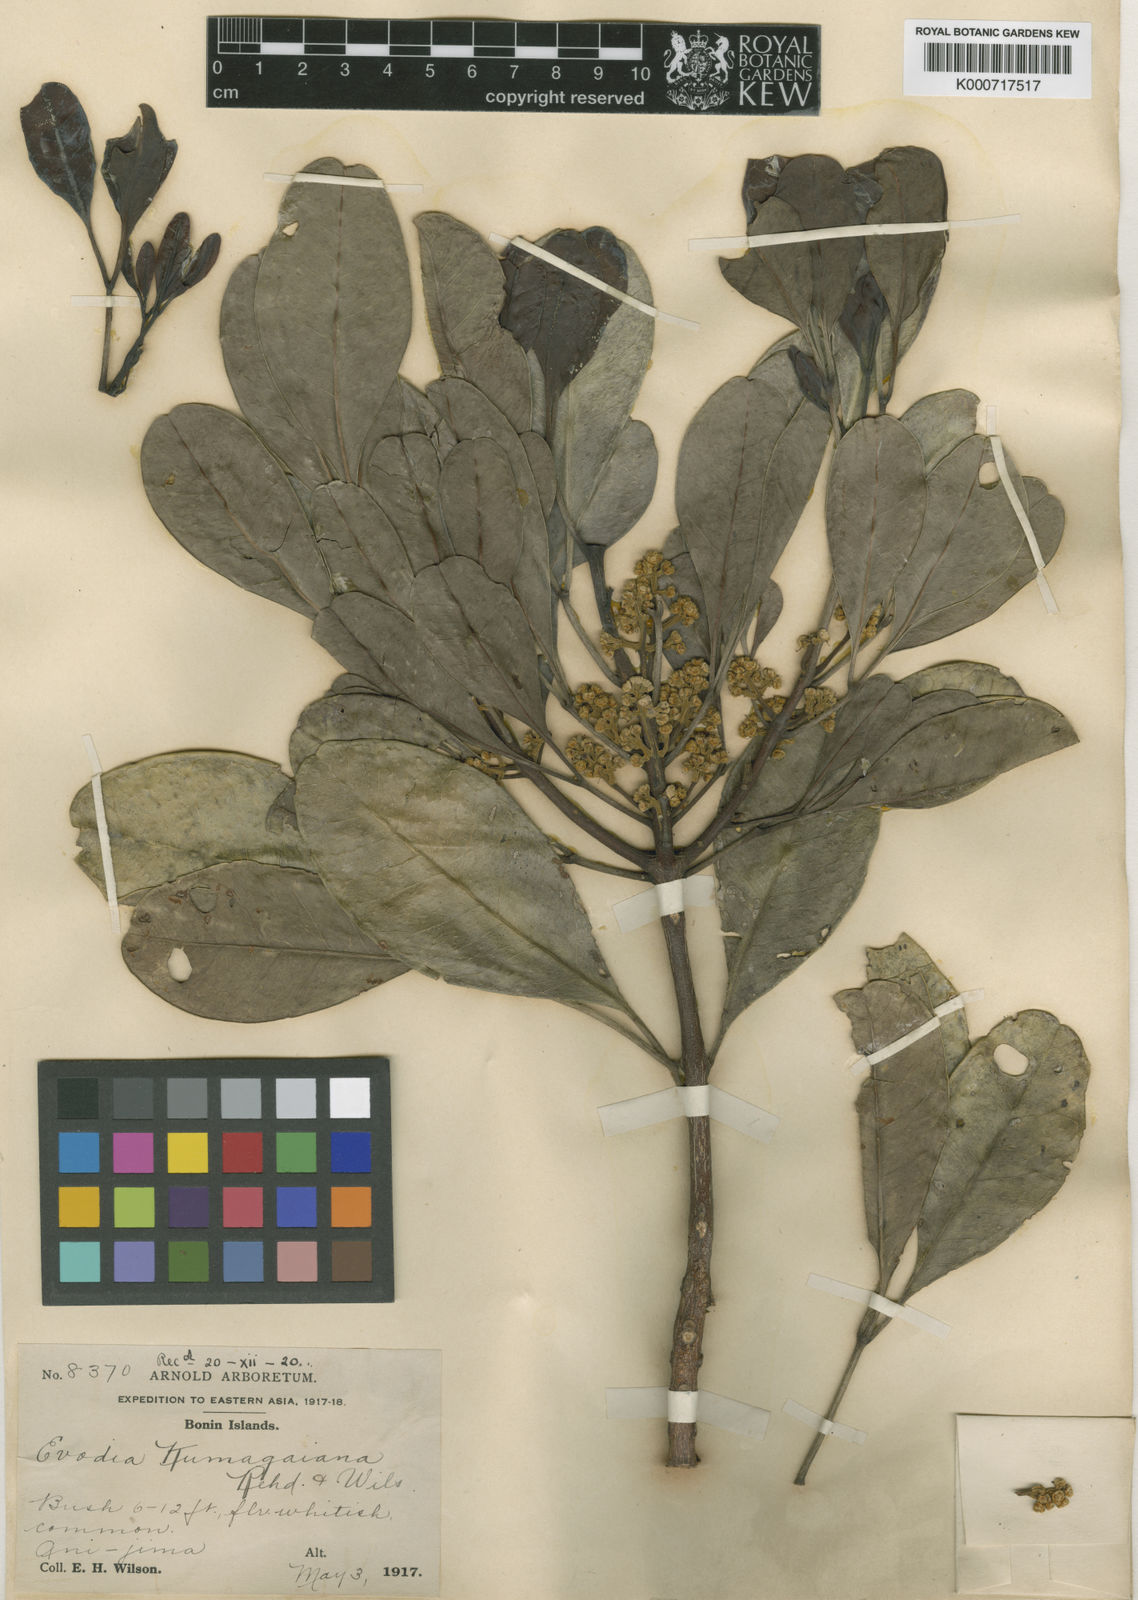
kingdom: Plantae
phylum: Tracheophyta
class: Magnoliopsida
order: Sapindales
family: Rutaceae
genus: Melicope
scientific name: Melicope nishimurae
